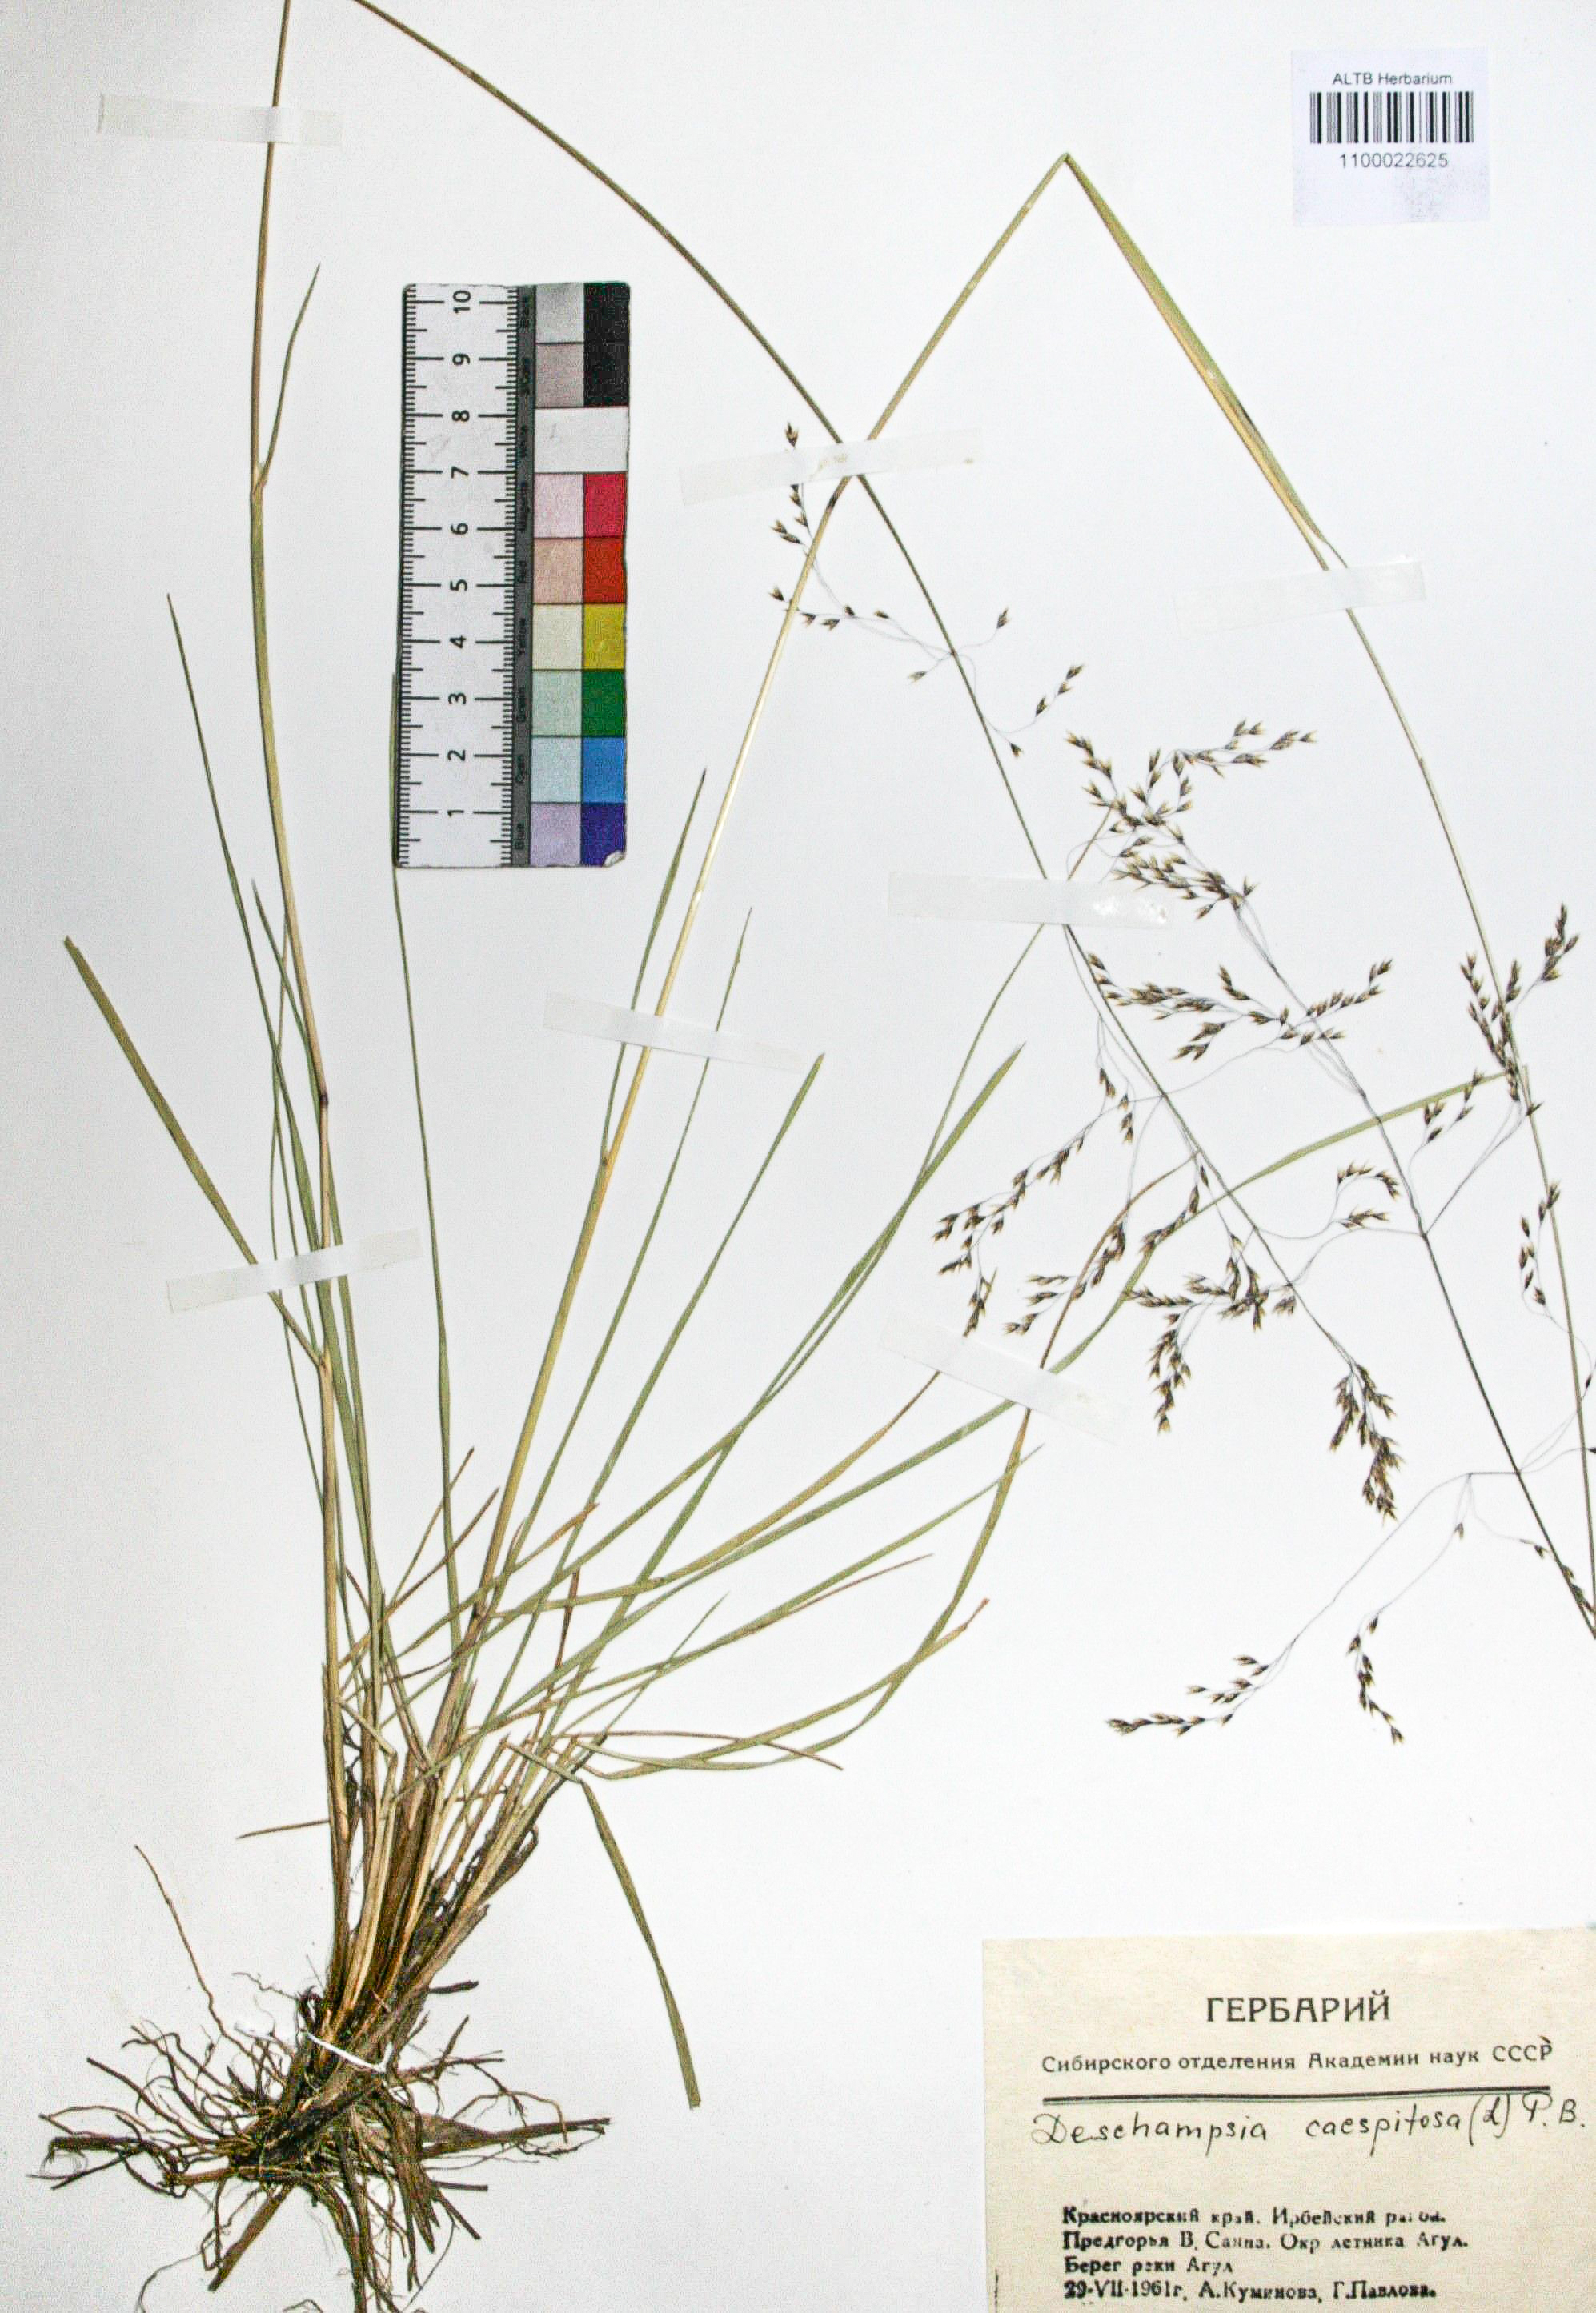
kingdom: Plantae
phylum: Tracheophyta
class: Liliopsida
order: Poales
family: Poaceae
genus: Deschampsia
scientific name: Deschampsia cespitosa
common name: Tufted hair-grass
